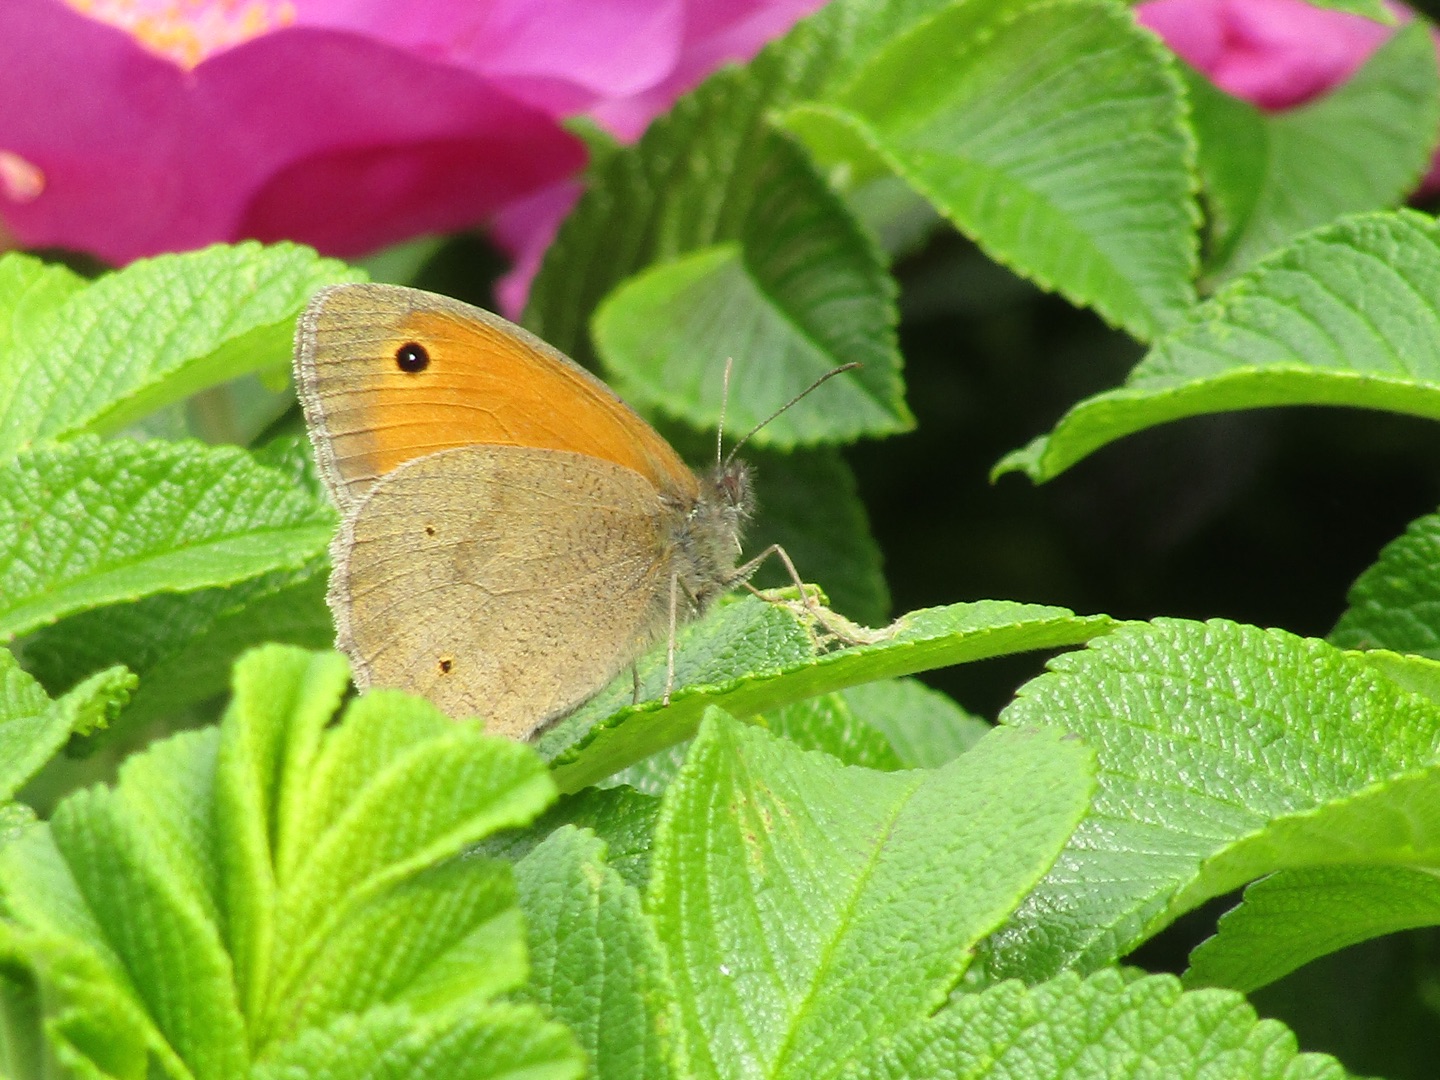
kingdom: Animalia
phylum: Arthropoda
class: Insecta
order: Lepidoptera
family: Nymphalidae
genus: Maniola
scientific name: Maniola jurtina
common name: Græsrandøje
